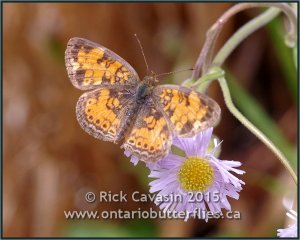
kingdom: Animalia
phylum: Arthropoda
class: Insecta
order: Lepidoptera
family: Nymphalidae
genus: Phyciodes
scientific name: Phyciodes tharos
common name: Pearl Crescent
